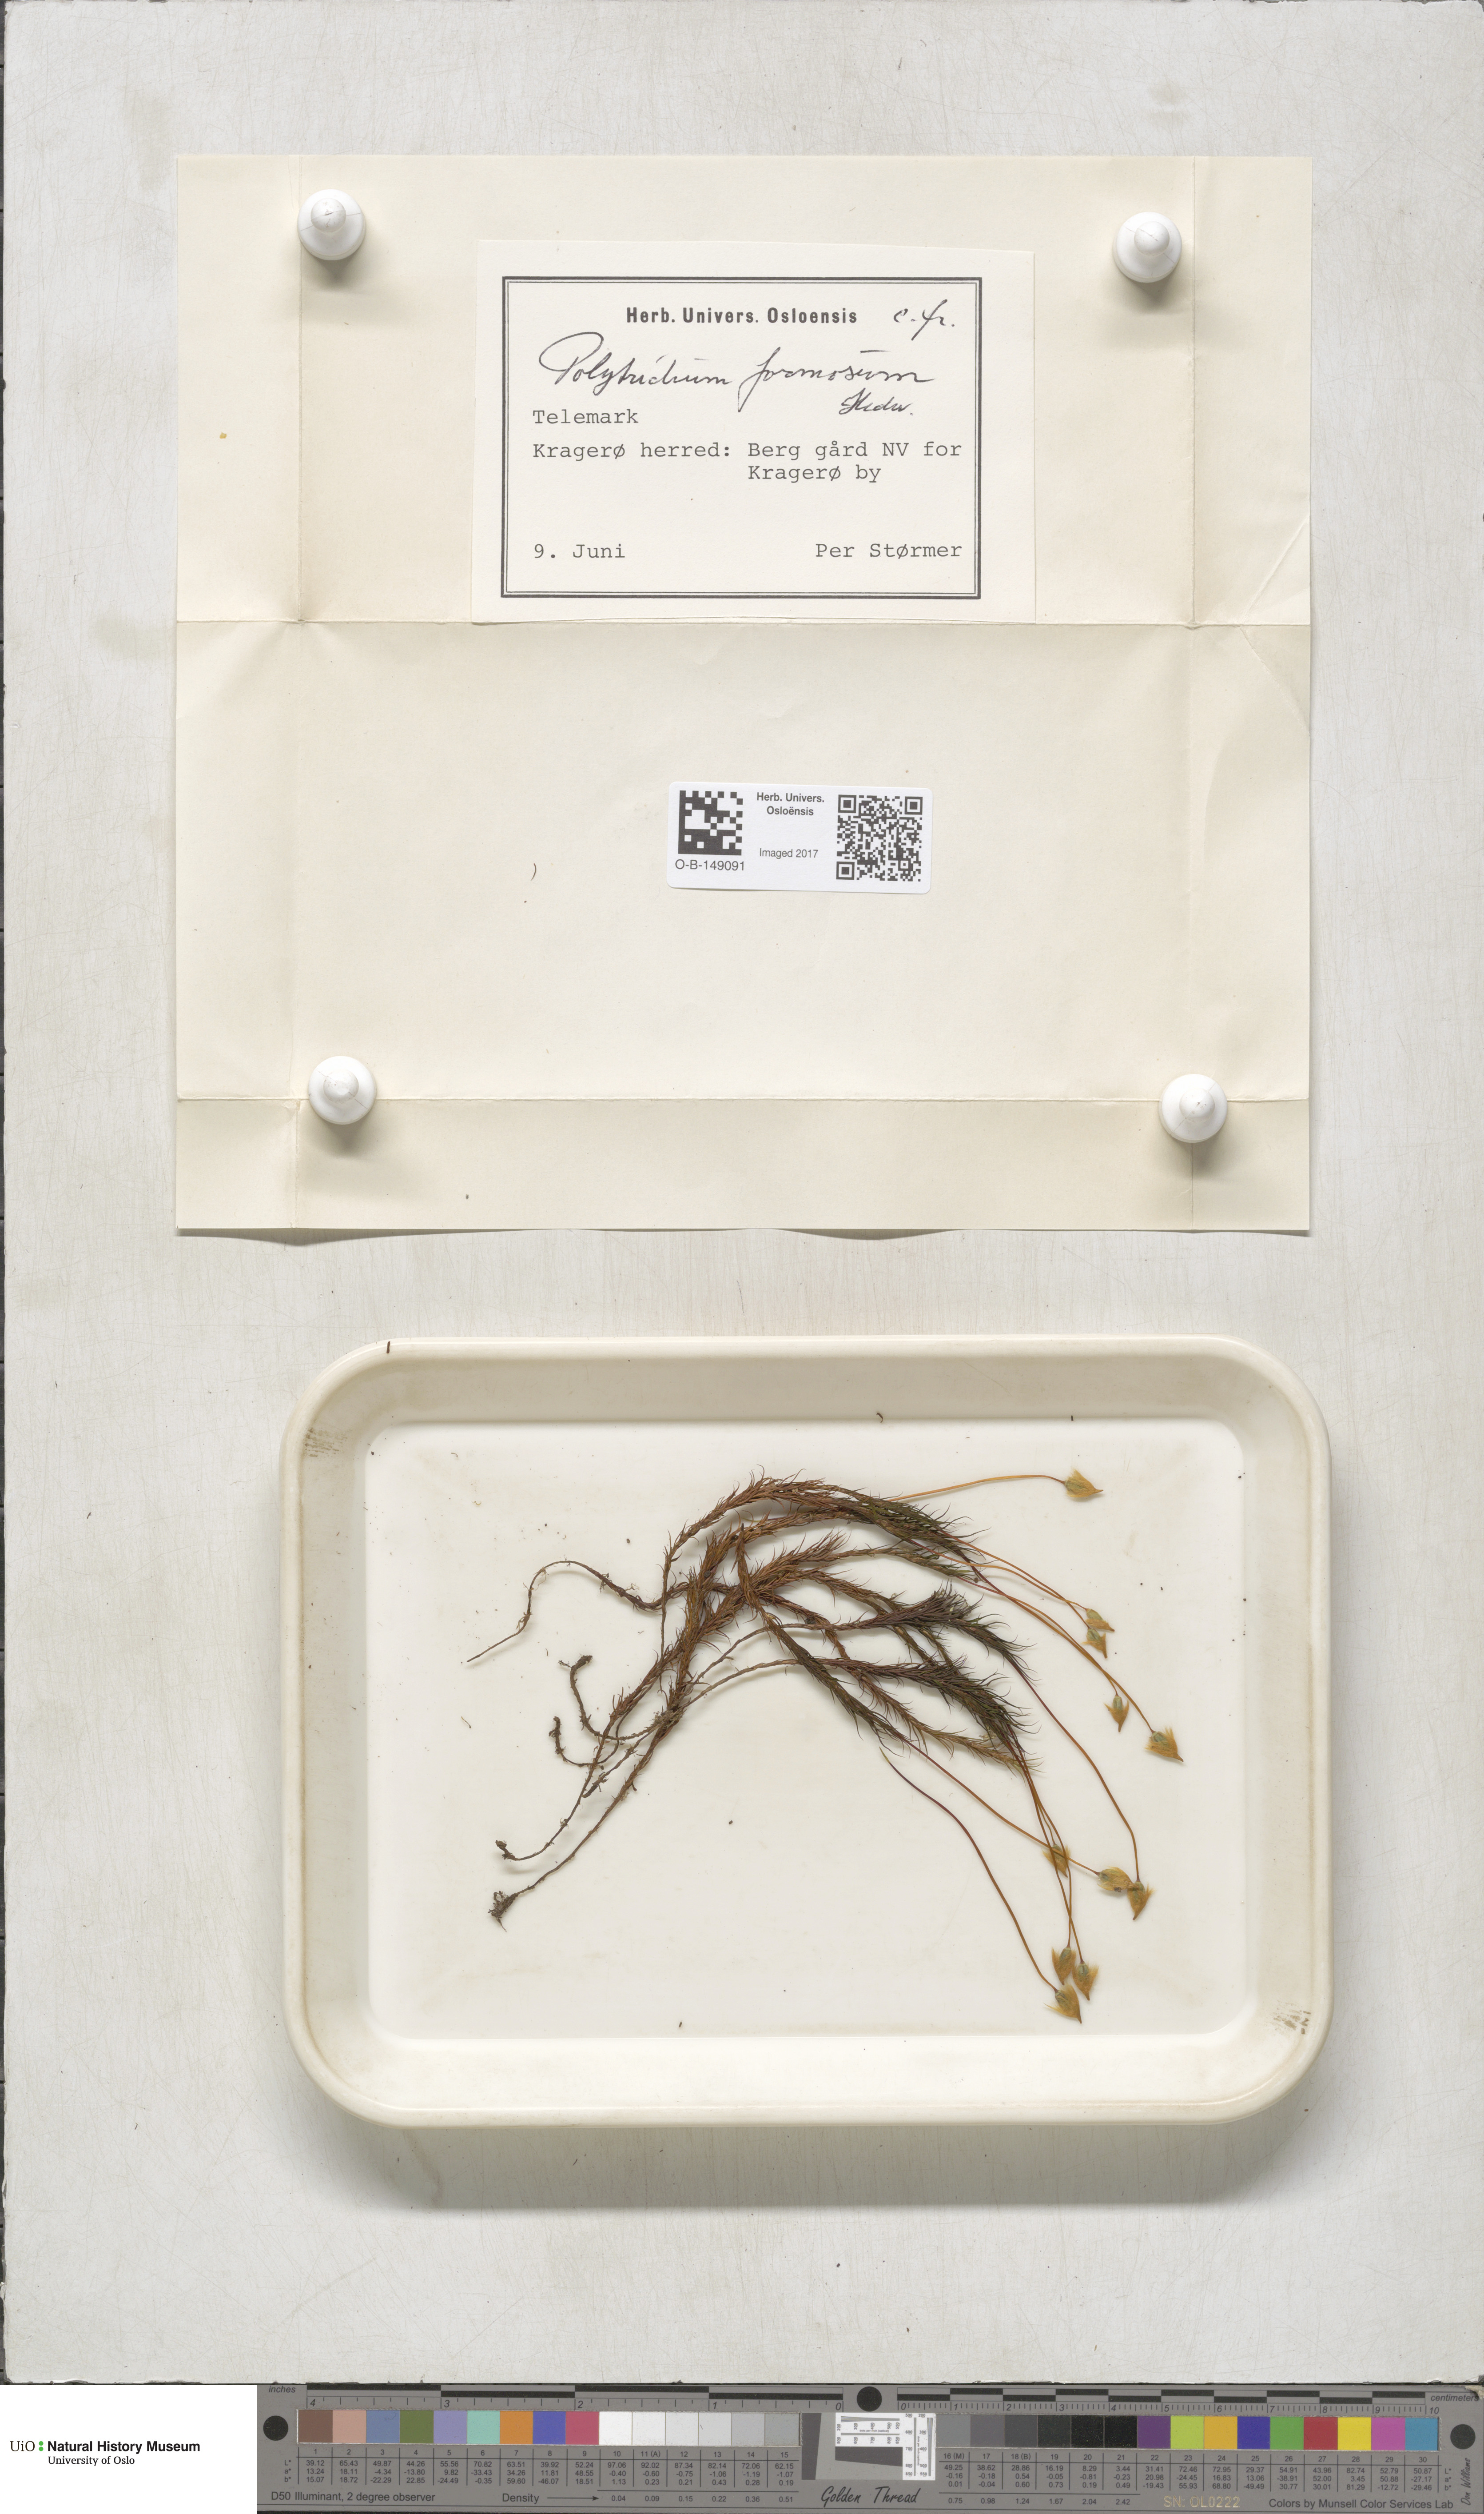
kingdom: Plantae
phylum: Bryophyta
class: Polytrichopsida
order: Polytrichales
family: Polytrichaceae
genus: Polytrichum
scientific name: Polytrichum formosum
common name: Bank haircap moss
